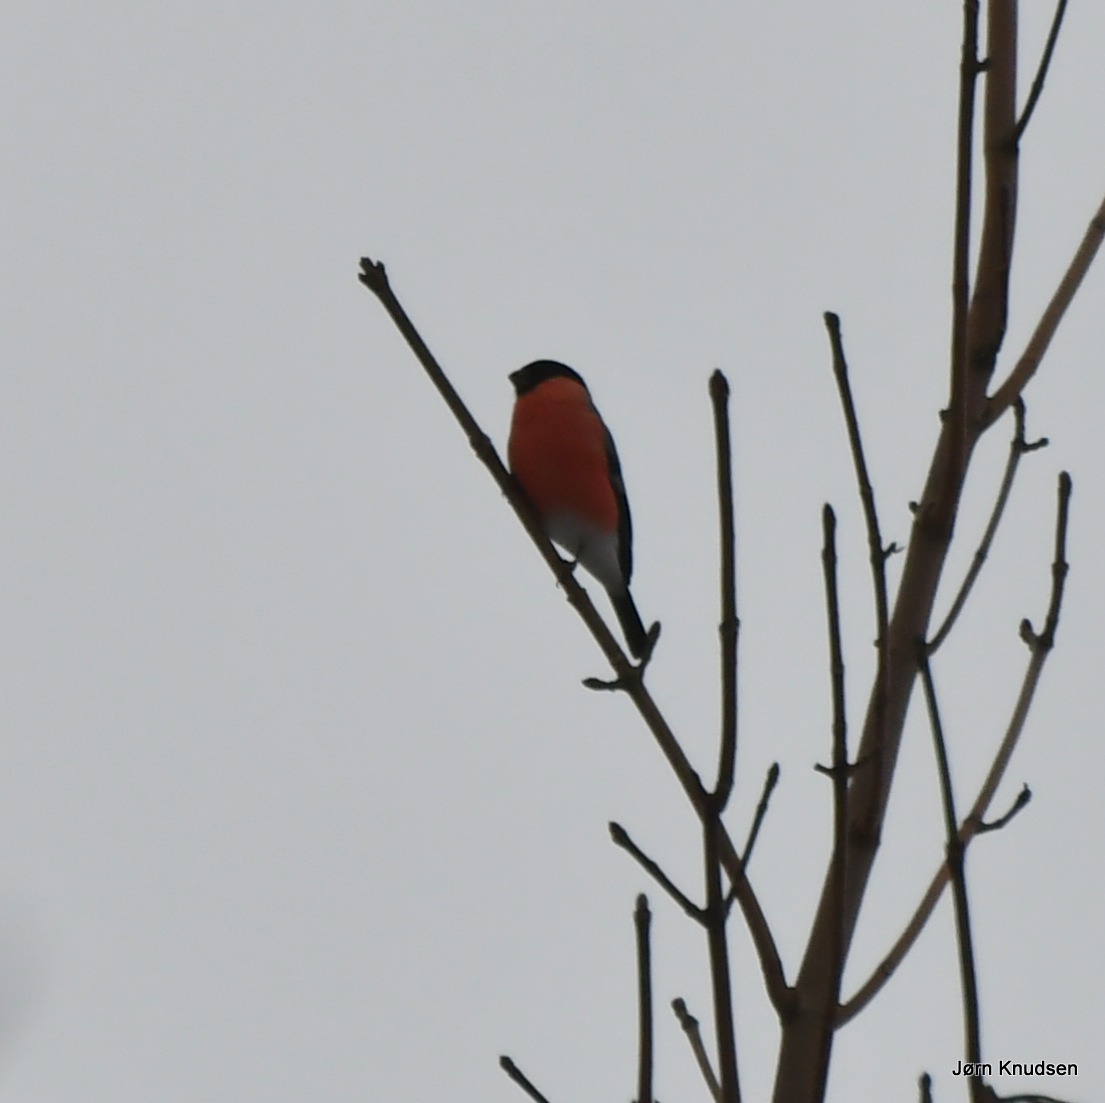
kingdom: Animalia
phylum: Chordata
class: Aves
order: Passeriformes
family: Fringillidae
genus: Pyrrhula
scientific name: Pyrrhula pyrrhula
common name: Dompap
